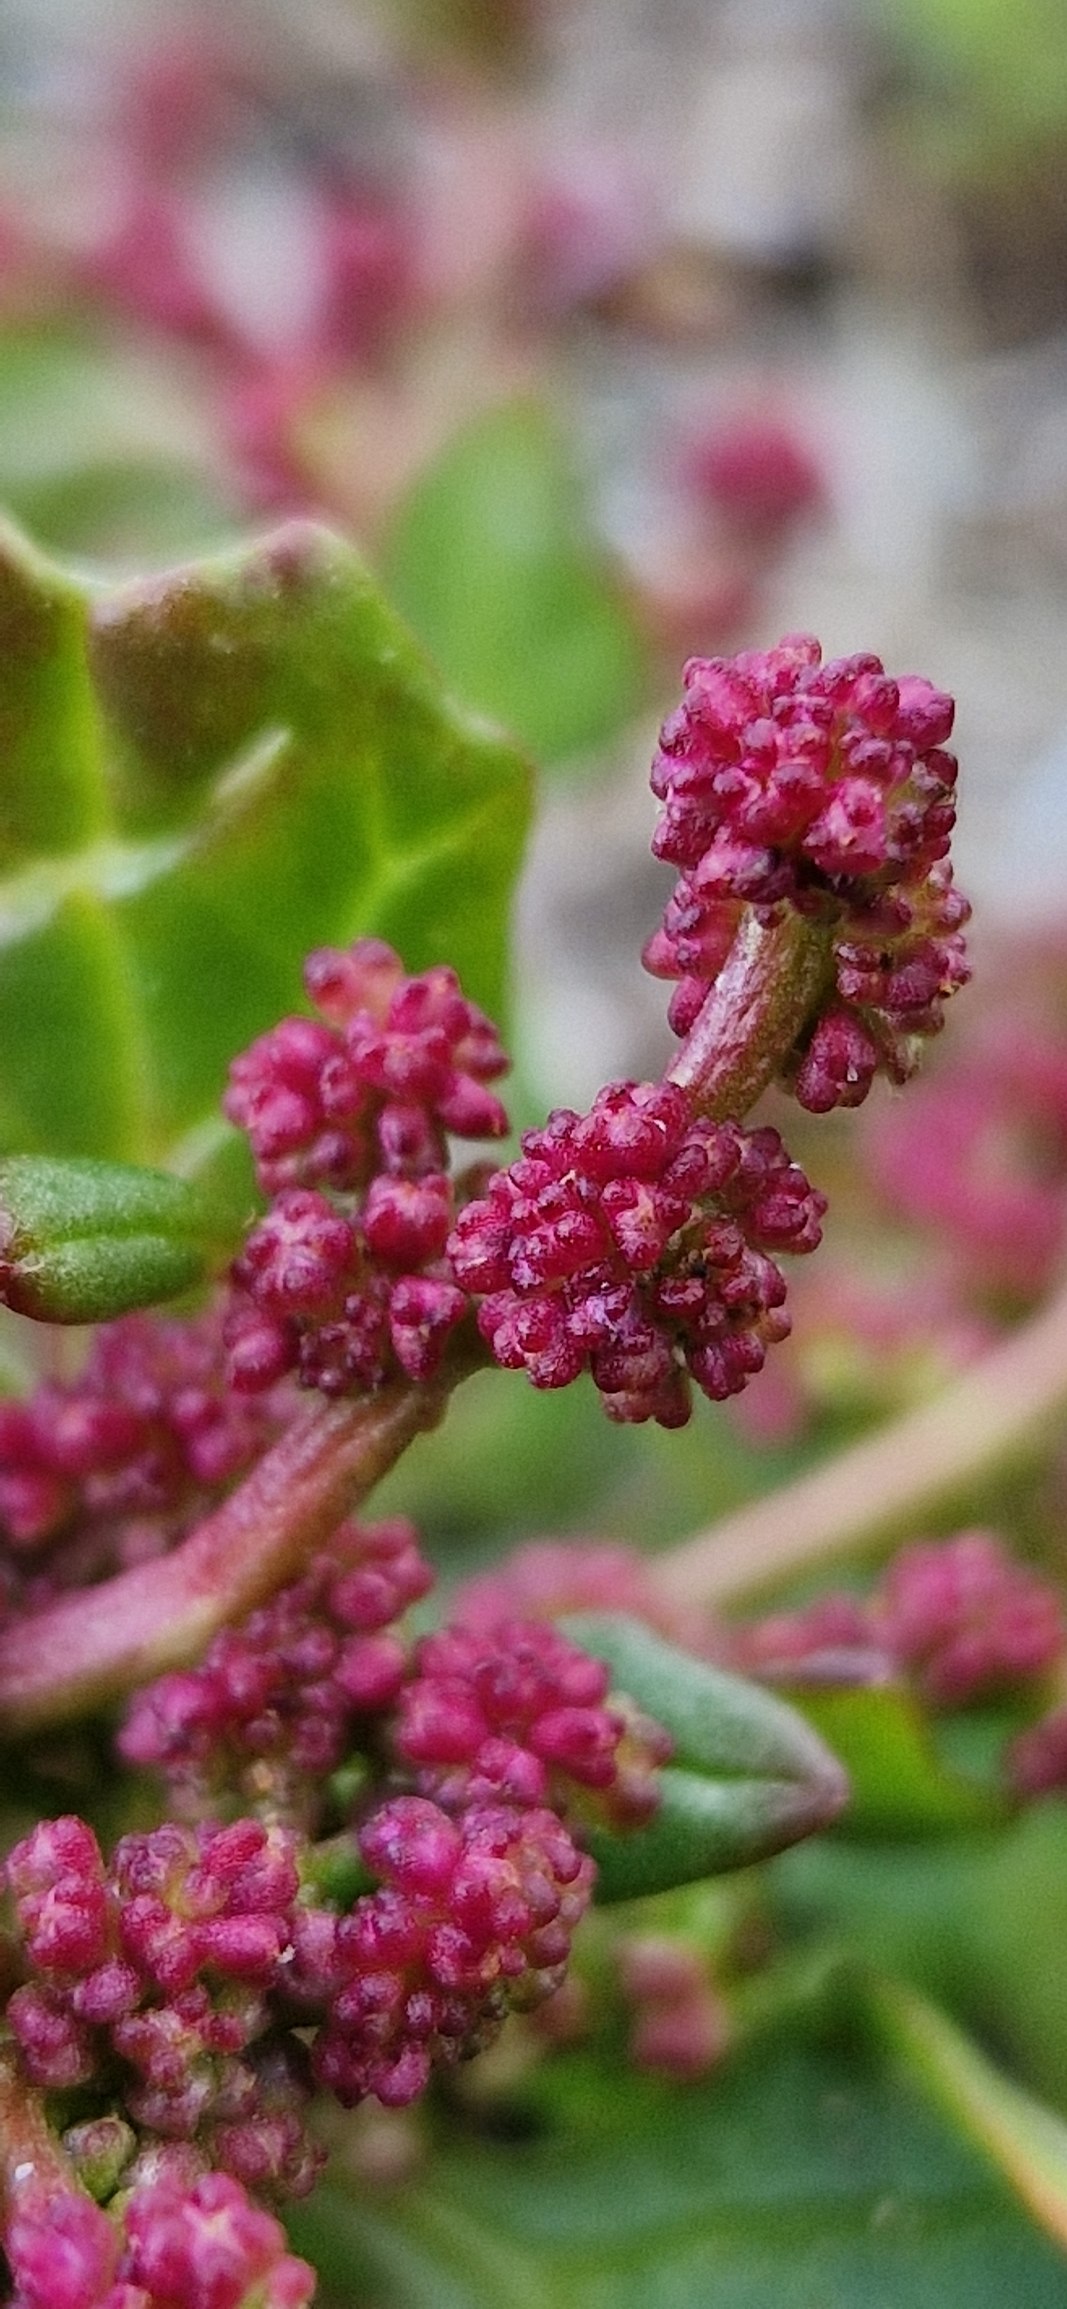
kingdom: Plantae
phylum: Tracheophyta
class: Magnoliopsida
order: Caryophyllales
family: Amaranthaceae
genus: Oxybasis
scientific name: Oxybasis chenopodioides
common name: Drue-gåsefod
